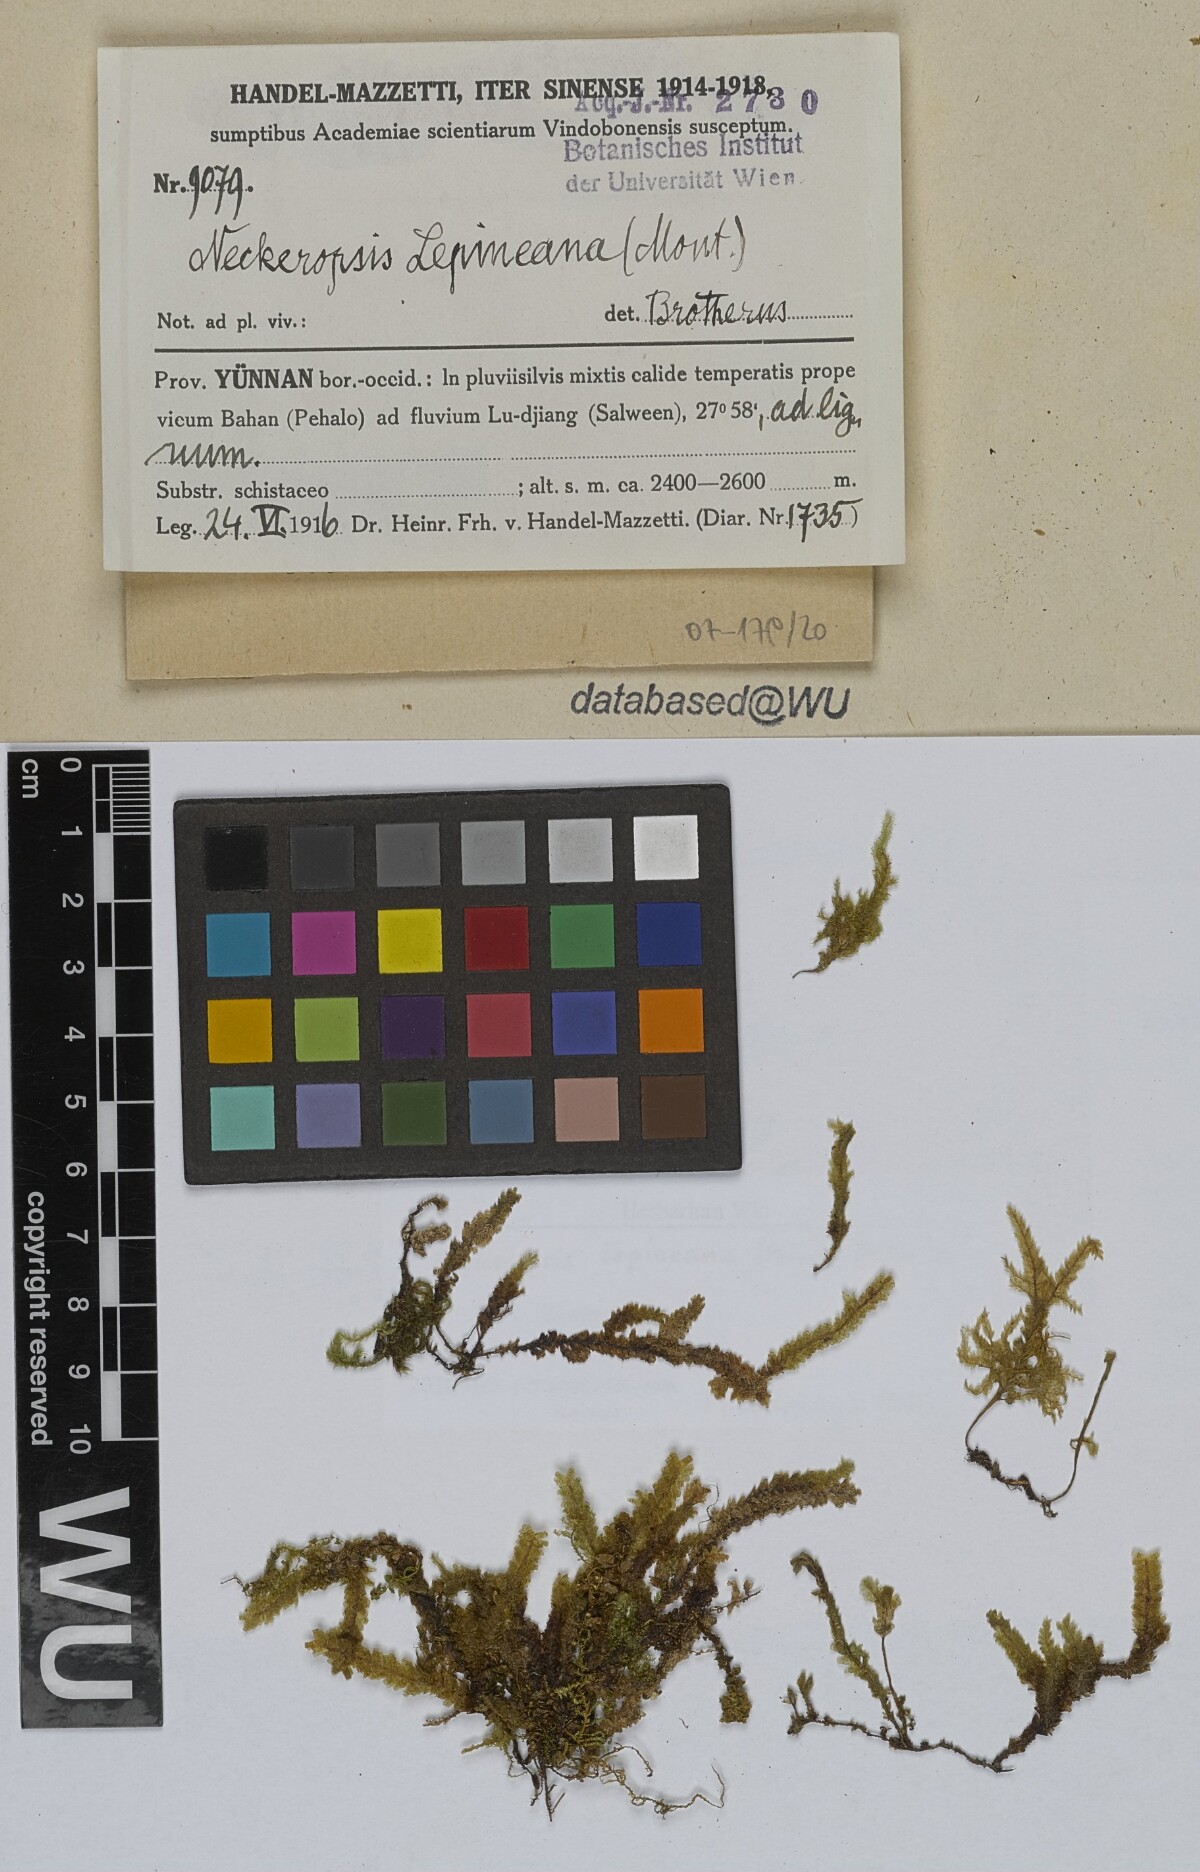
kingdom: Plantae
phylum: Bryophyta
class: Bryopsida
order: Hypnales
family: Neckeraceae
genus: Neckeromnion
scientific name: Neckeromnion lepineanum
